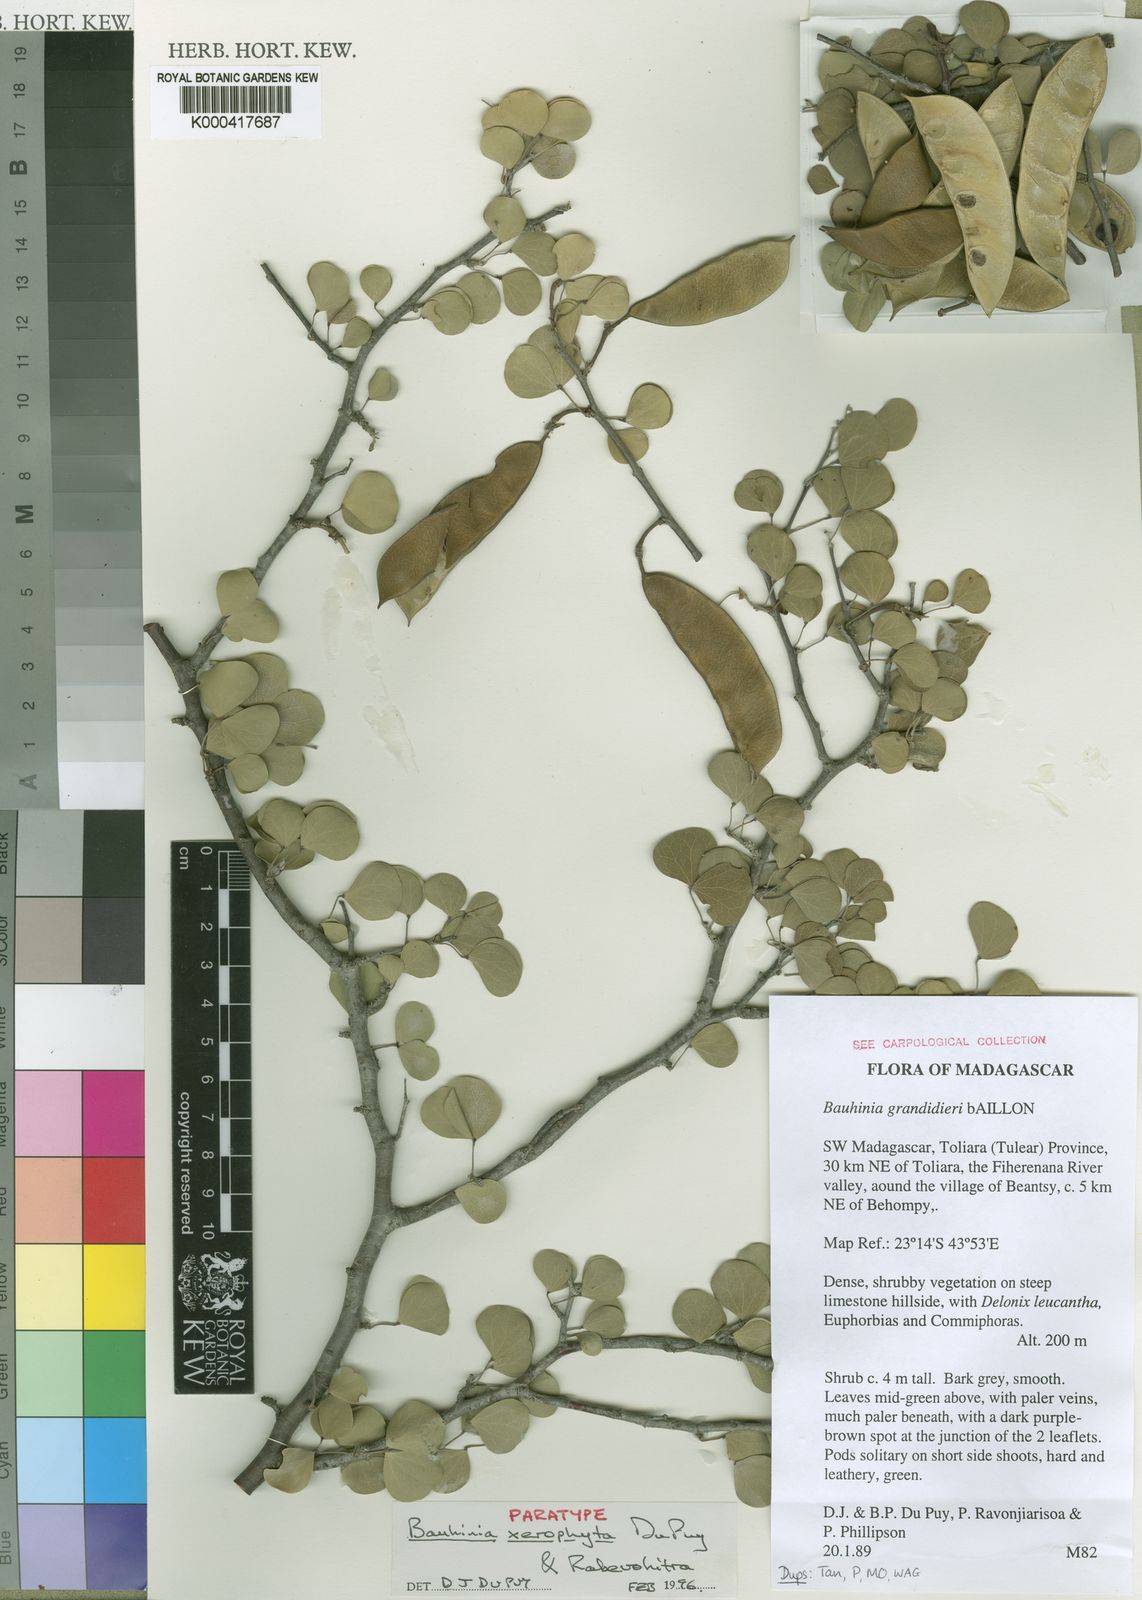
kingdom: Plantae
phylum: Tracheophyta
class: Magnoliopsida
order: Fabales
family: Fabaceae
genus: Bauhinia
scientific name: Bauhinia xerophyta
